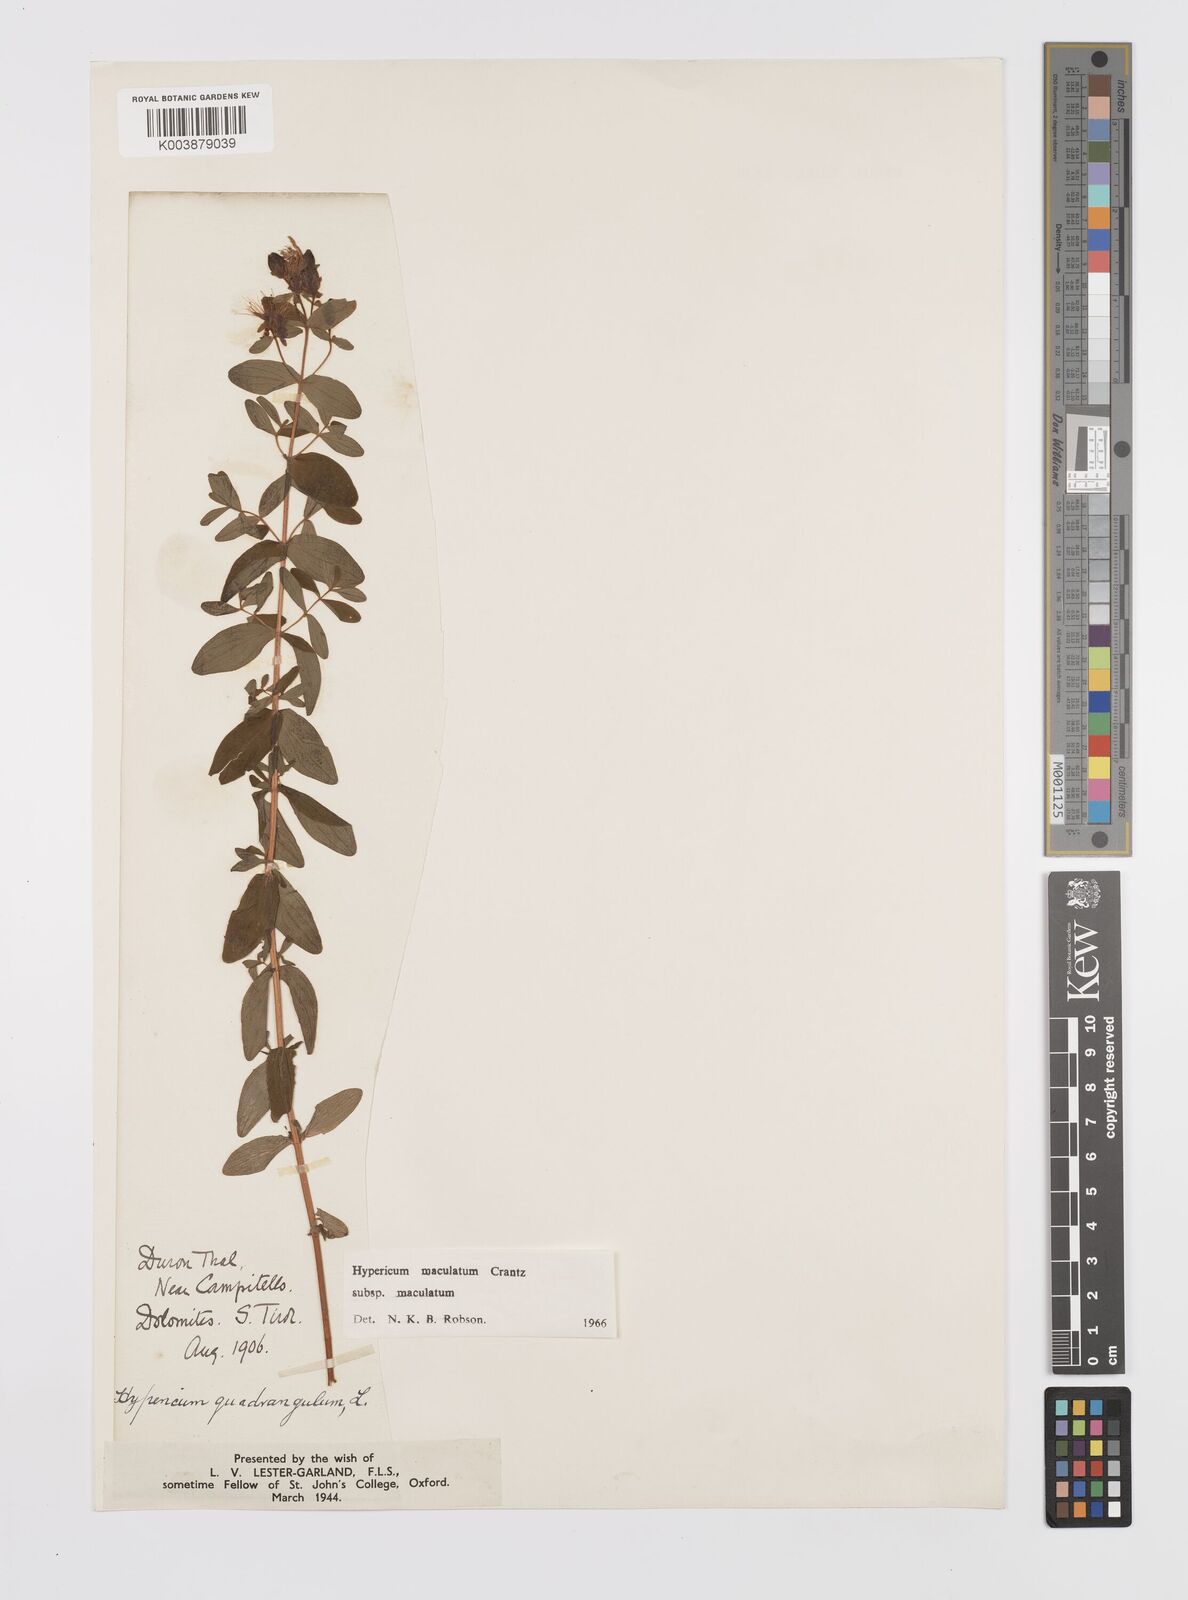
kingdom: Plantae
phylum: Tracheophyta
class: Magnoliopsida
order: Malpighiales
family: Hypericaceae
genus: Hypericum
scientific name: Hypericum maculatum
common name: Imperforate st. john's-wort
